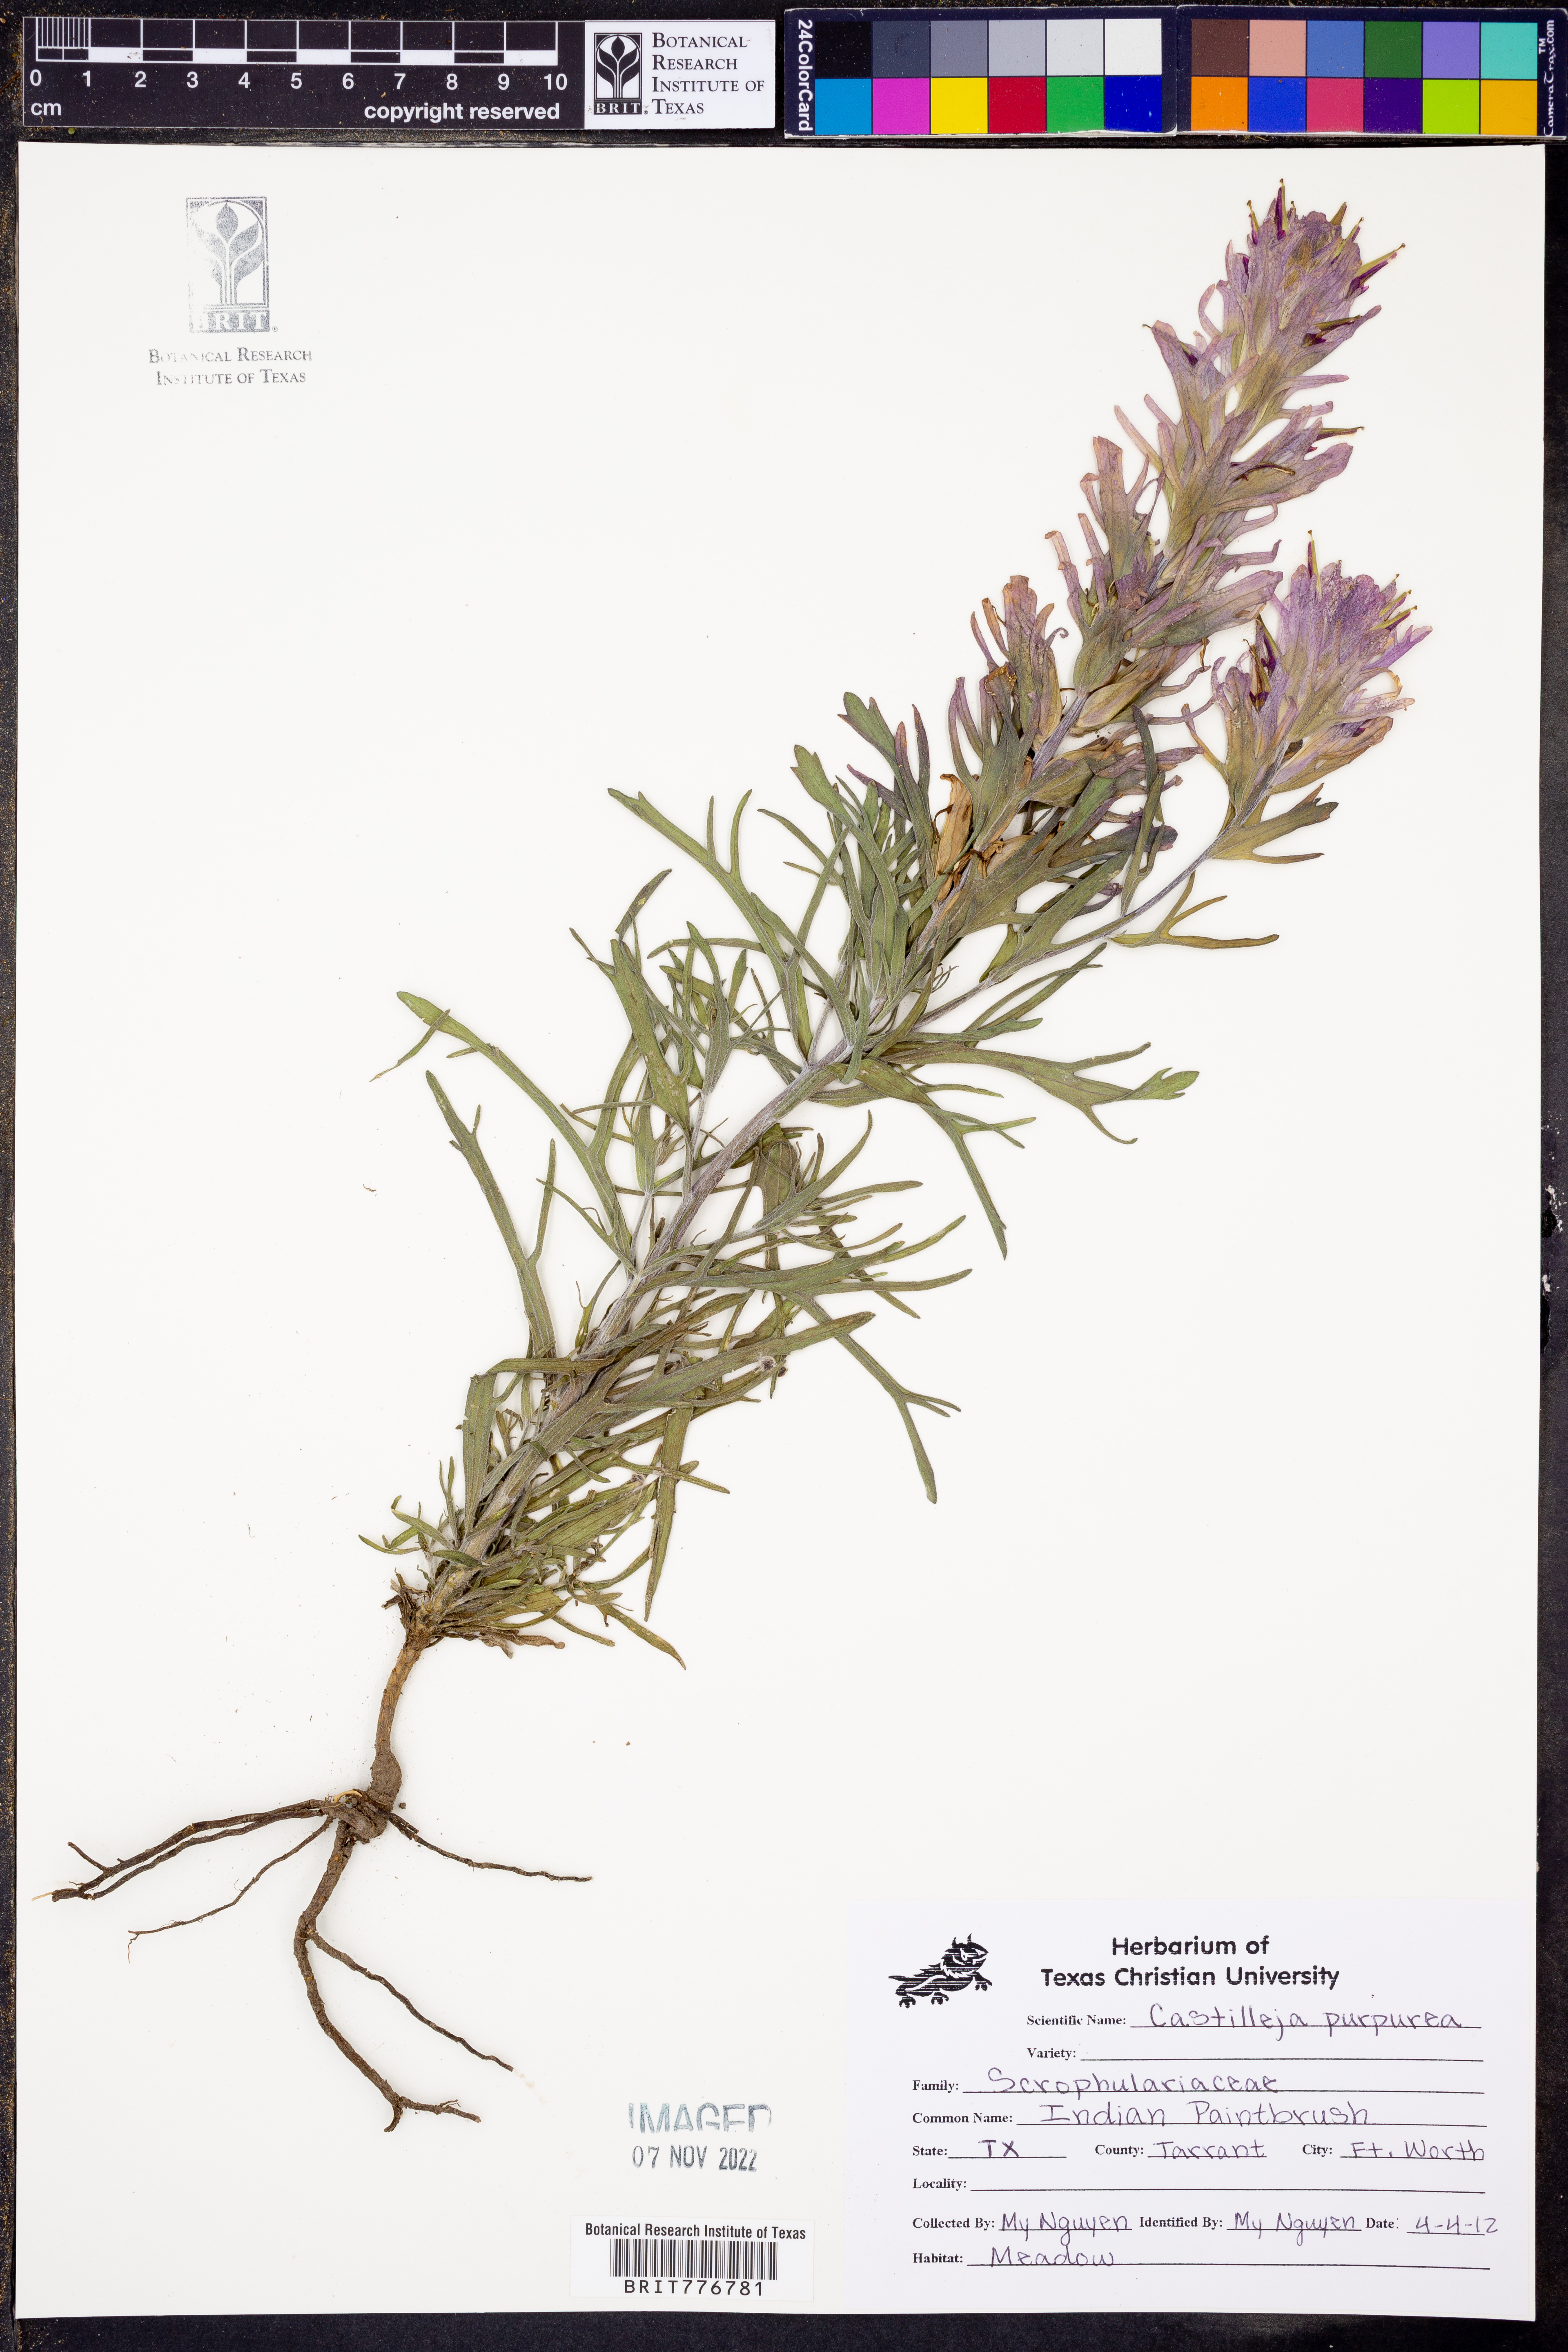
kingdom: Plantae
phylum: Tracheophyta
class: Magnoliopsida
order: Lamiales
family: Orobanchaceae
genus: Castilleja
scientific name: Castilleja purpurea
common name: Plains paintbrush
